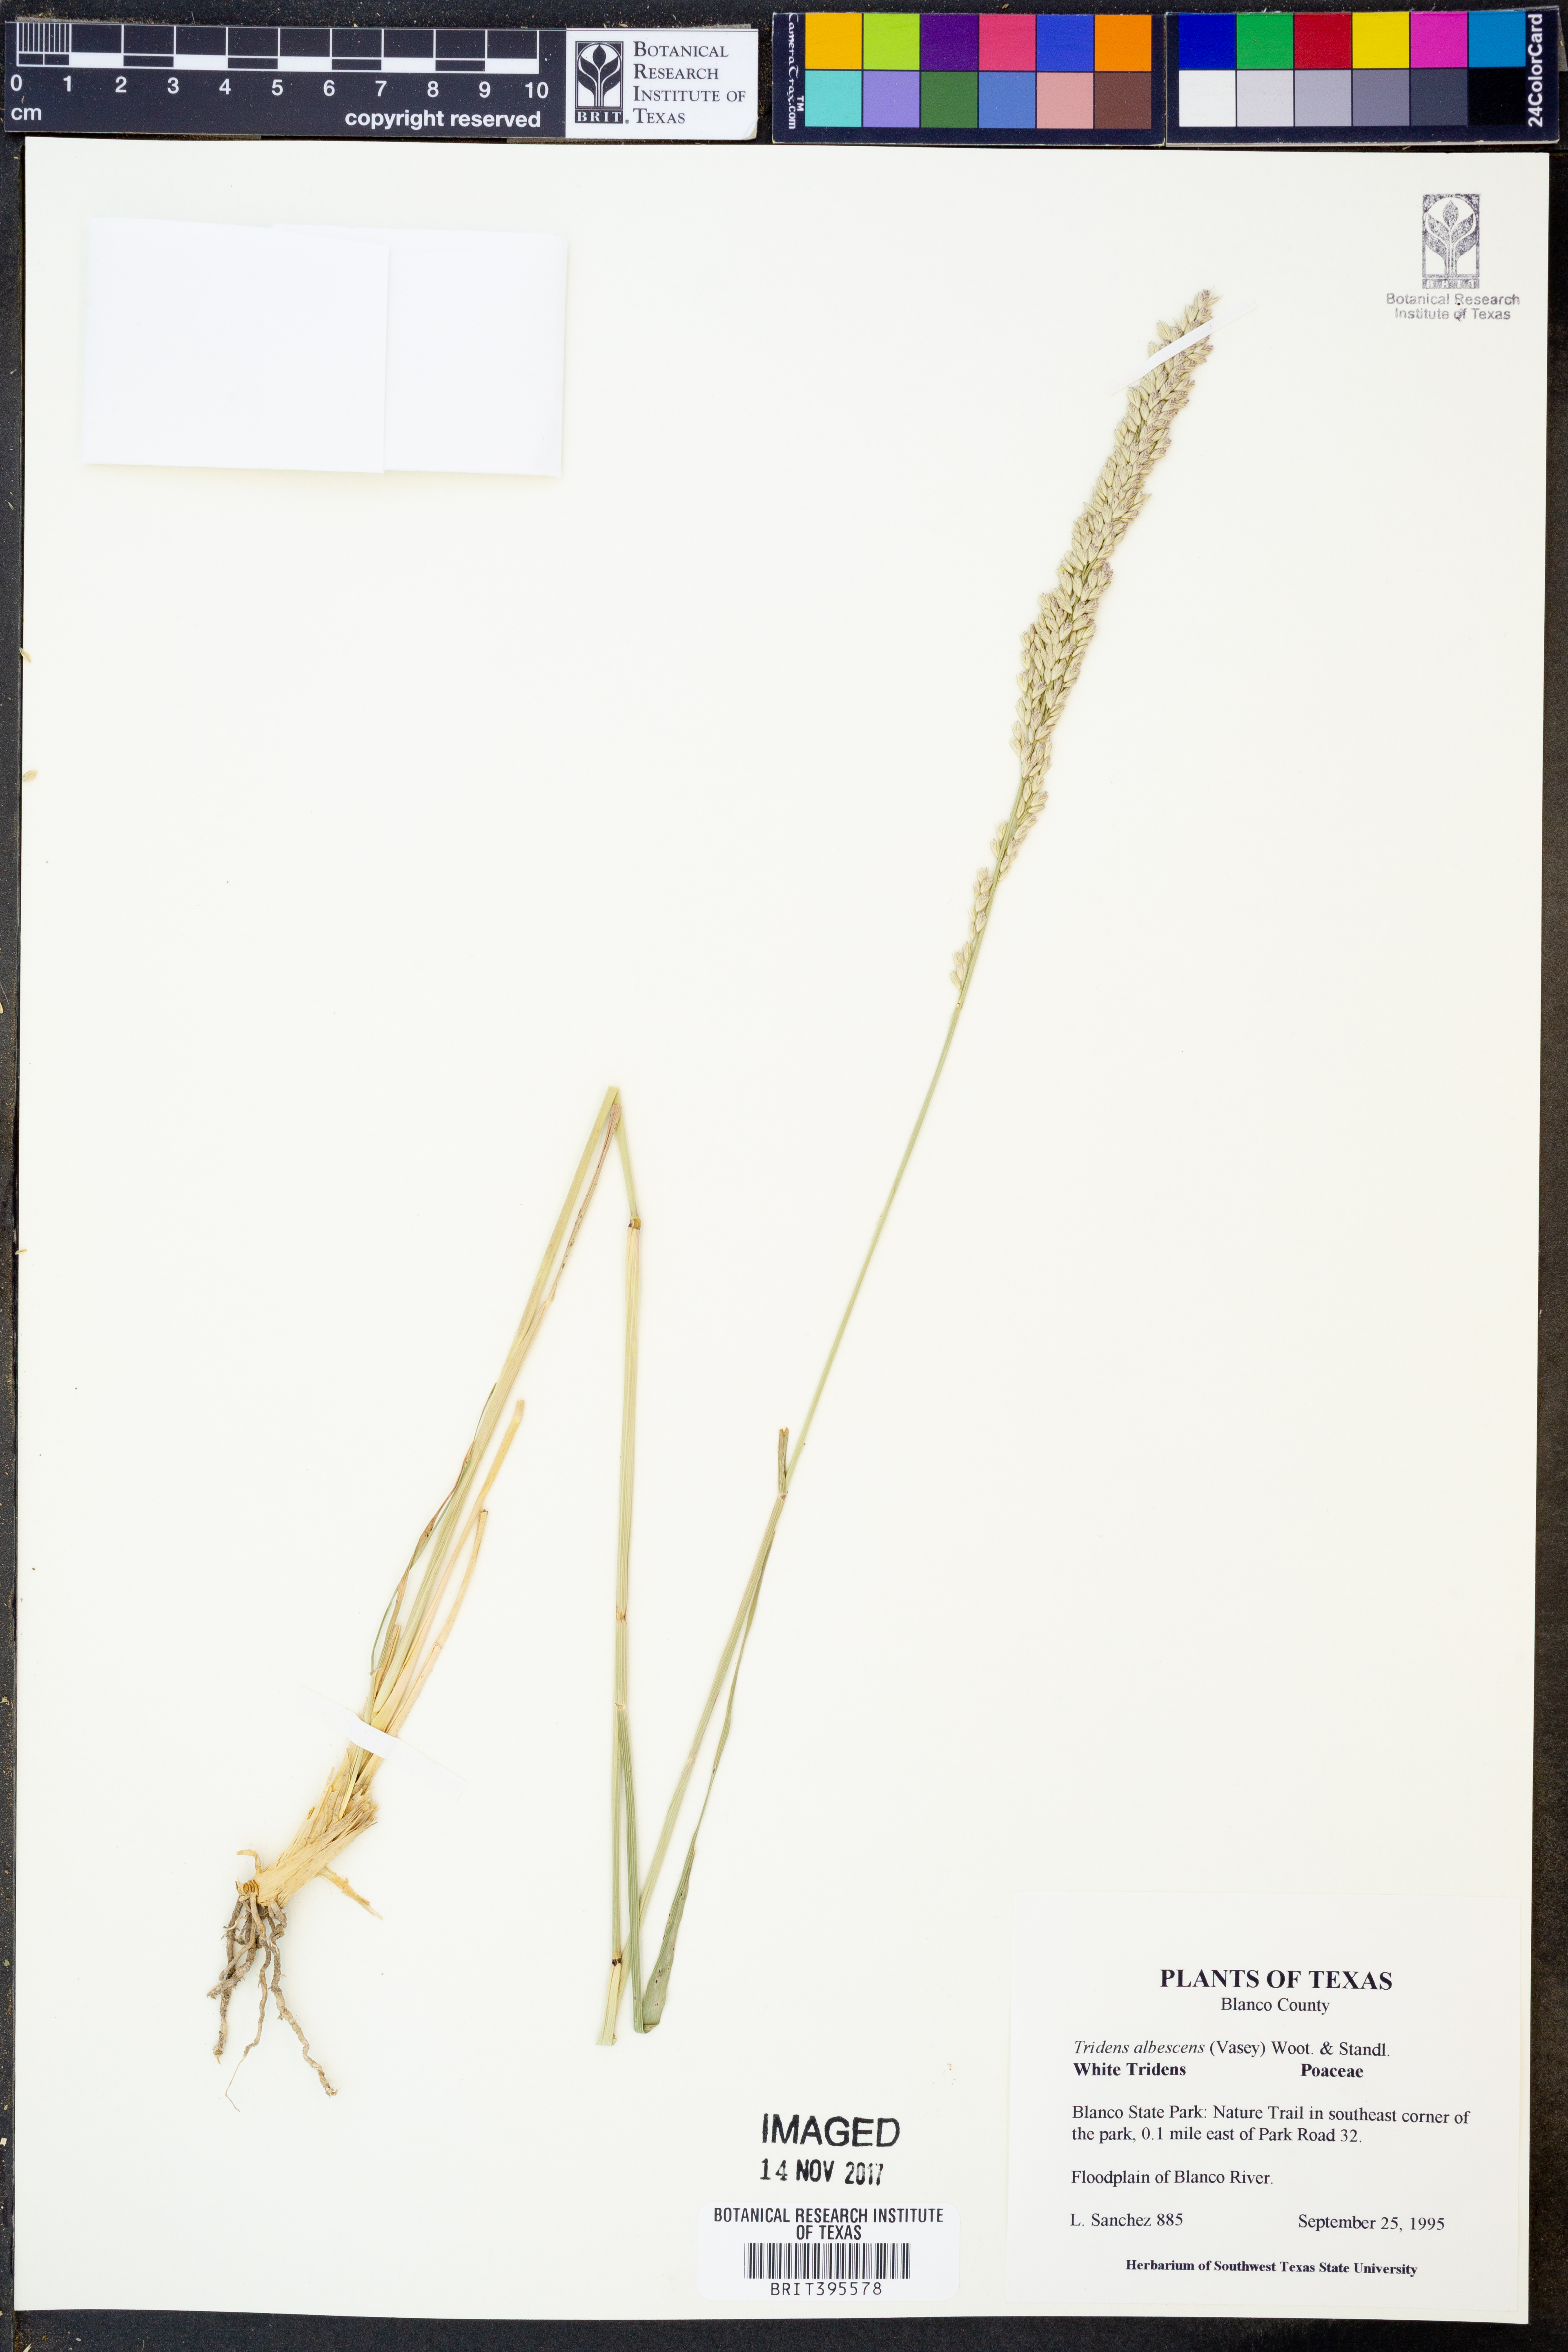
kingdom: Plantae
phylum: Tracheophyta
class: Liliopsida
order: Poales
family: Poaceae
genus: Tridens
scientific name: Tridens albescens
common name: White tridens
